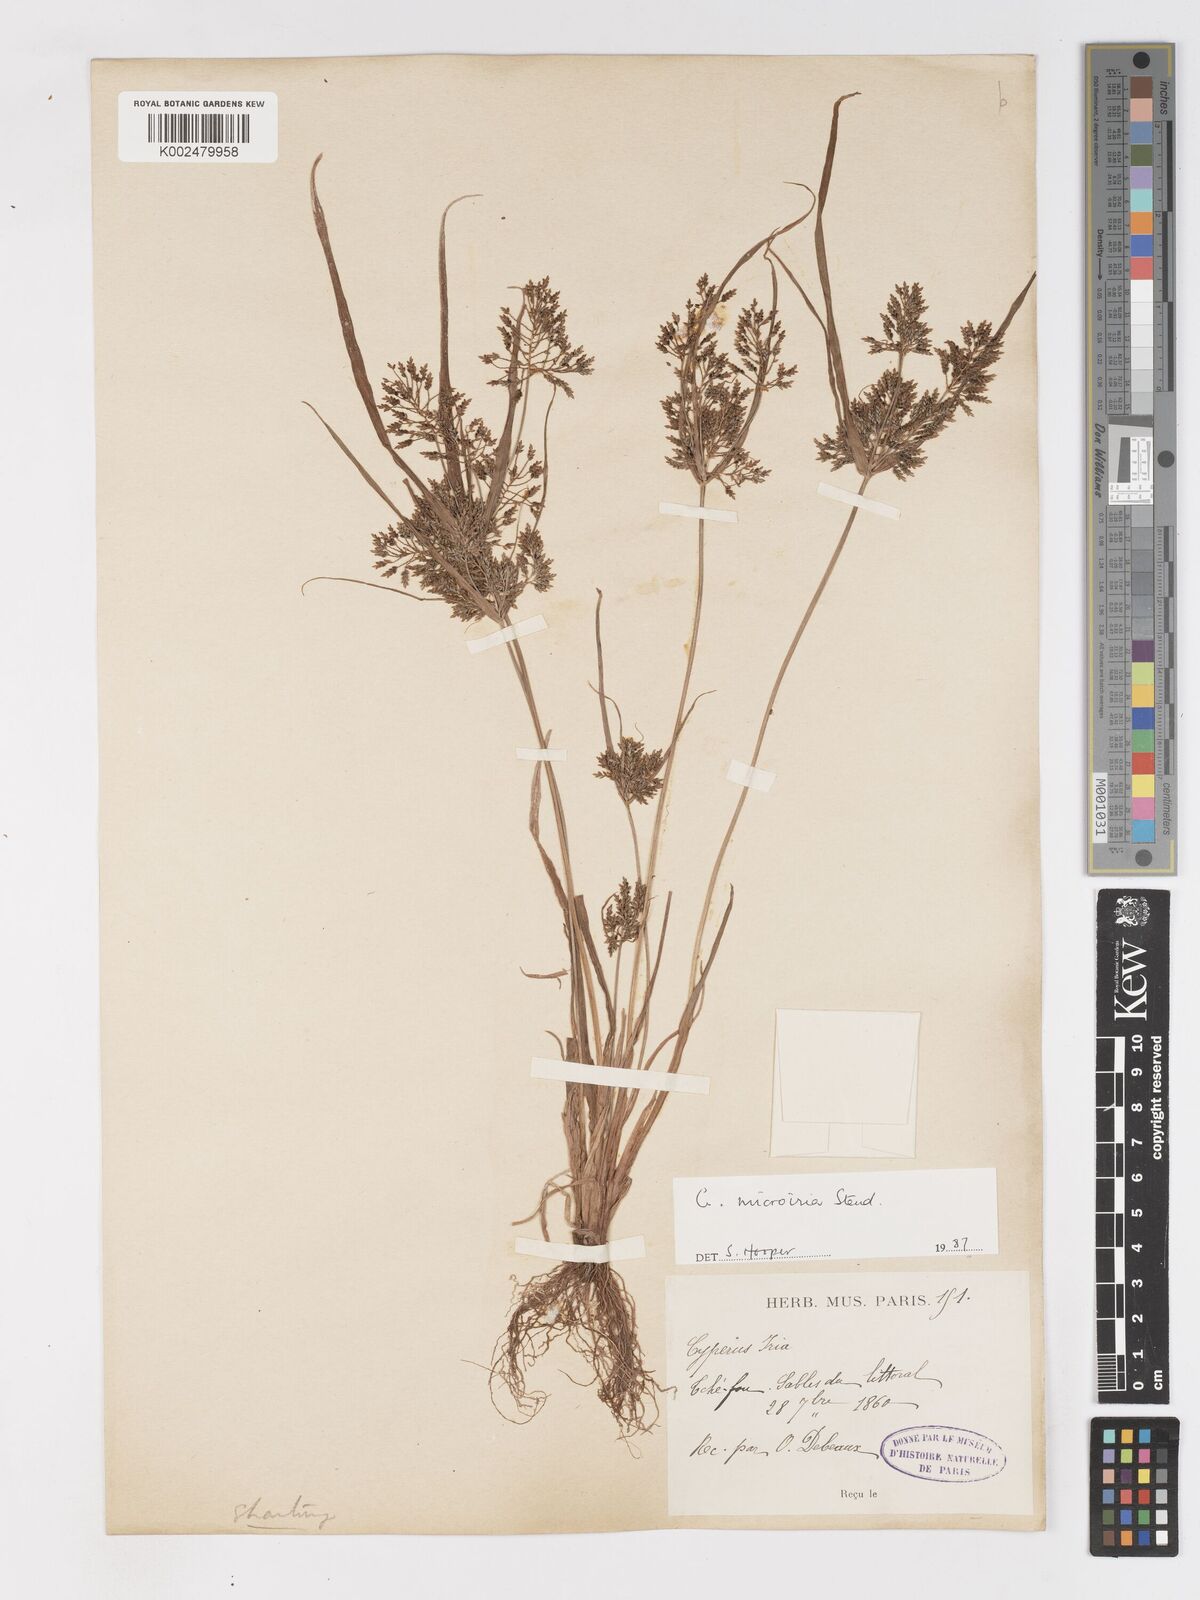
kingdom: Plantae
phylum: Tracheophyta
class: Liliopsida
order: Poales
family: Cyperaceae
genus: Cyperus
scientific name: Cyperus microiria
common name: Asian flatsedge
